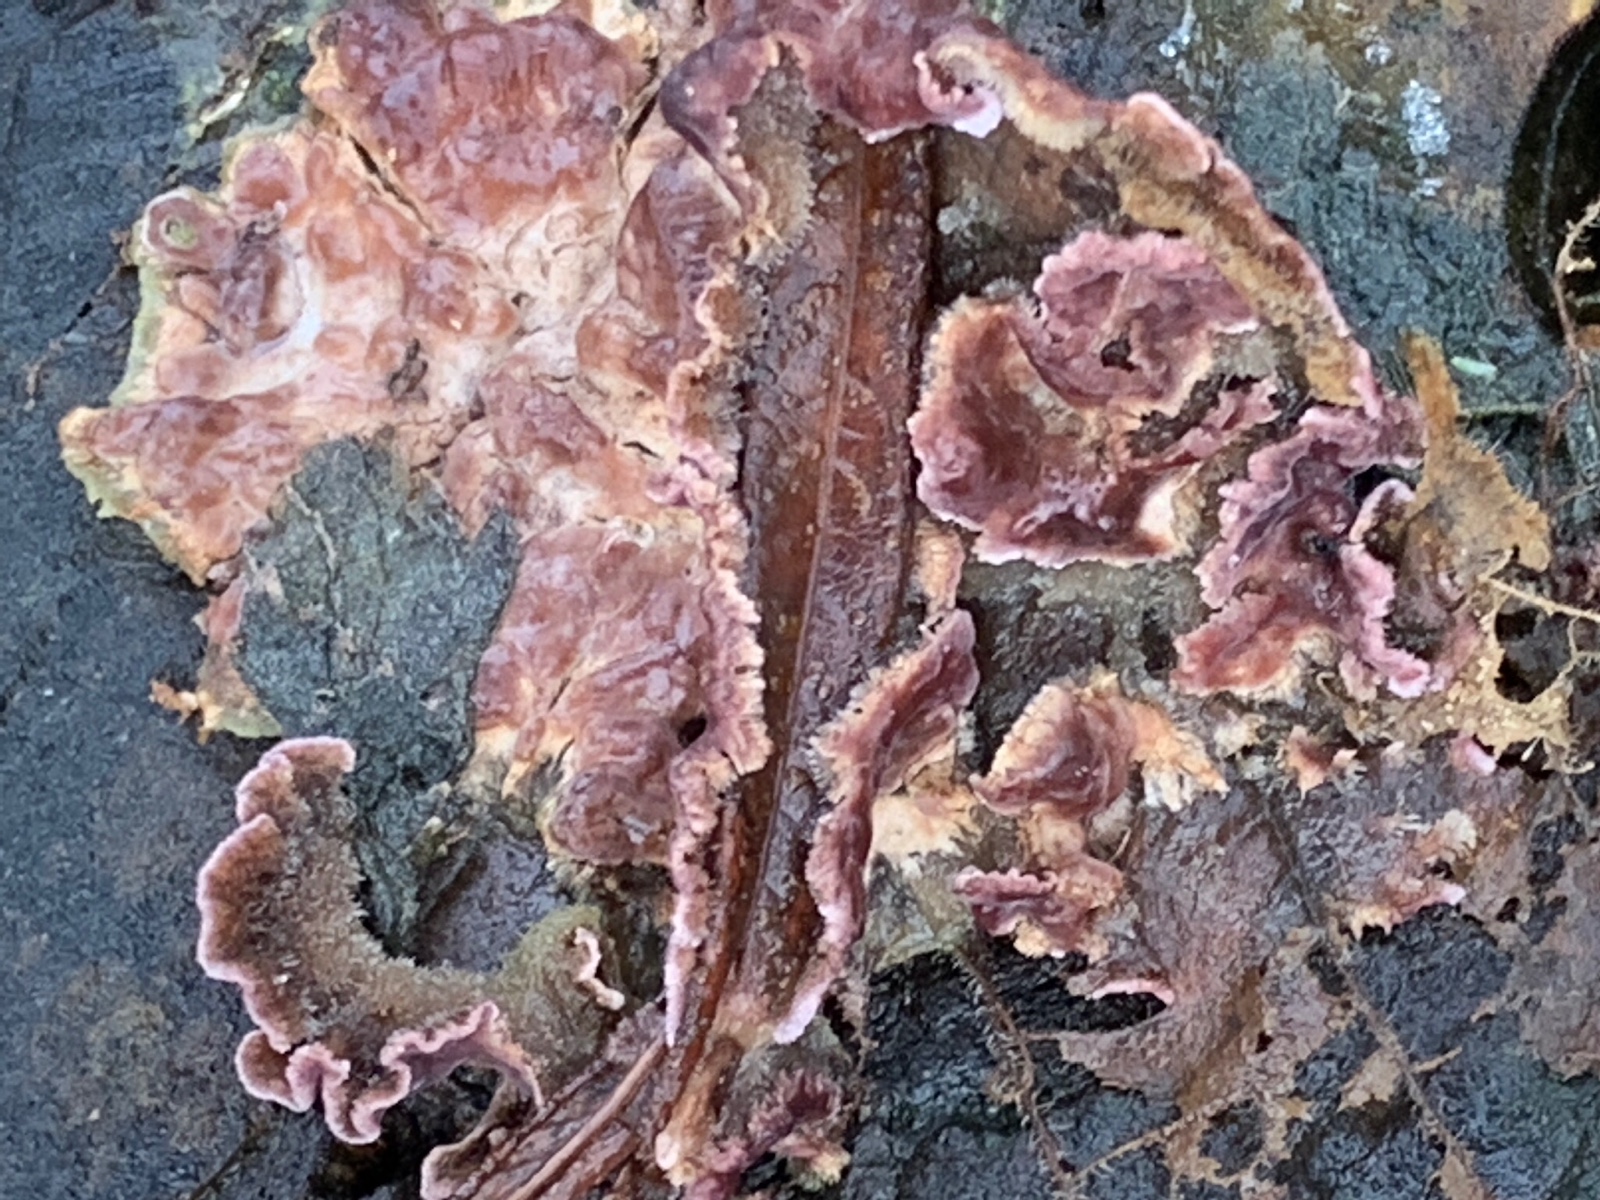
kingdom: Fungi
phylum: Basidiomycota
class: Agaricomycetes
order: Agaricales
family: Cyphellaceae
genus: Chondrostereum
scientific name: Chondrostereum purpureum
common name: purpurlædersvamp
